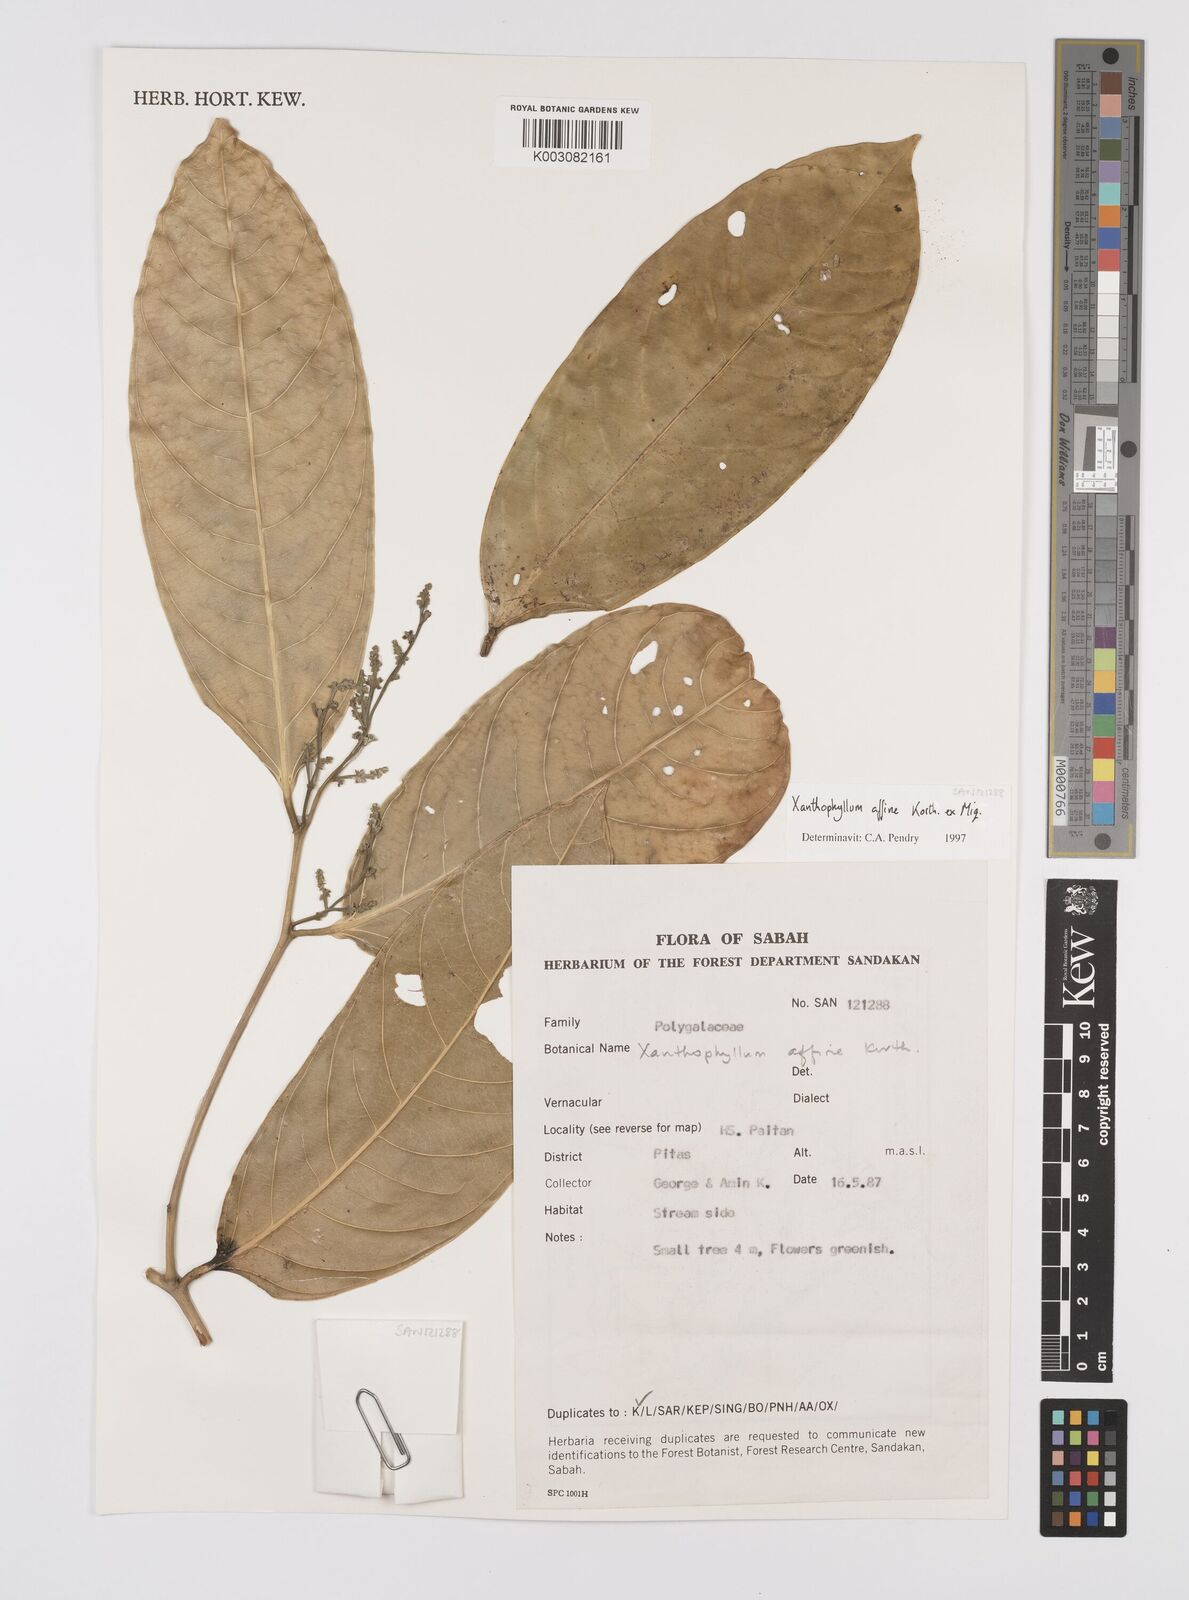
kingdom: Plantae
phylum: Tracheophyta
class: Magnoliopsida
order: Fabales
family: Polygalaceae
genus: Xanthophyllum
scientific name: Xanthophyllum flavescens
